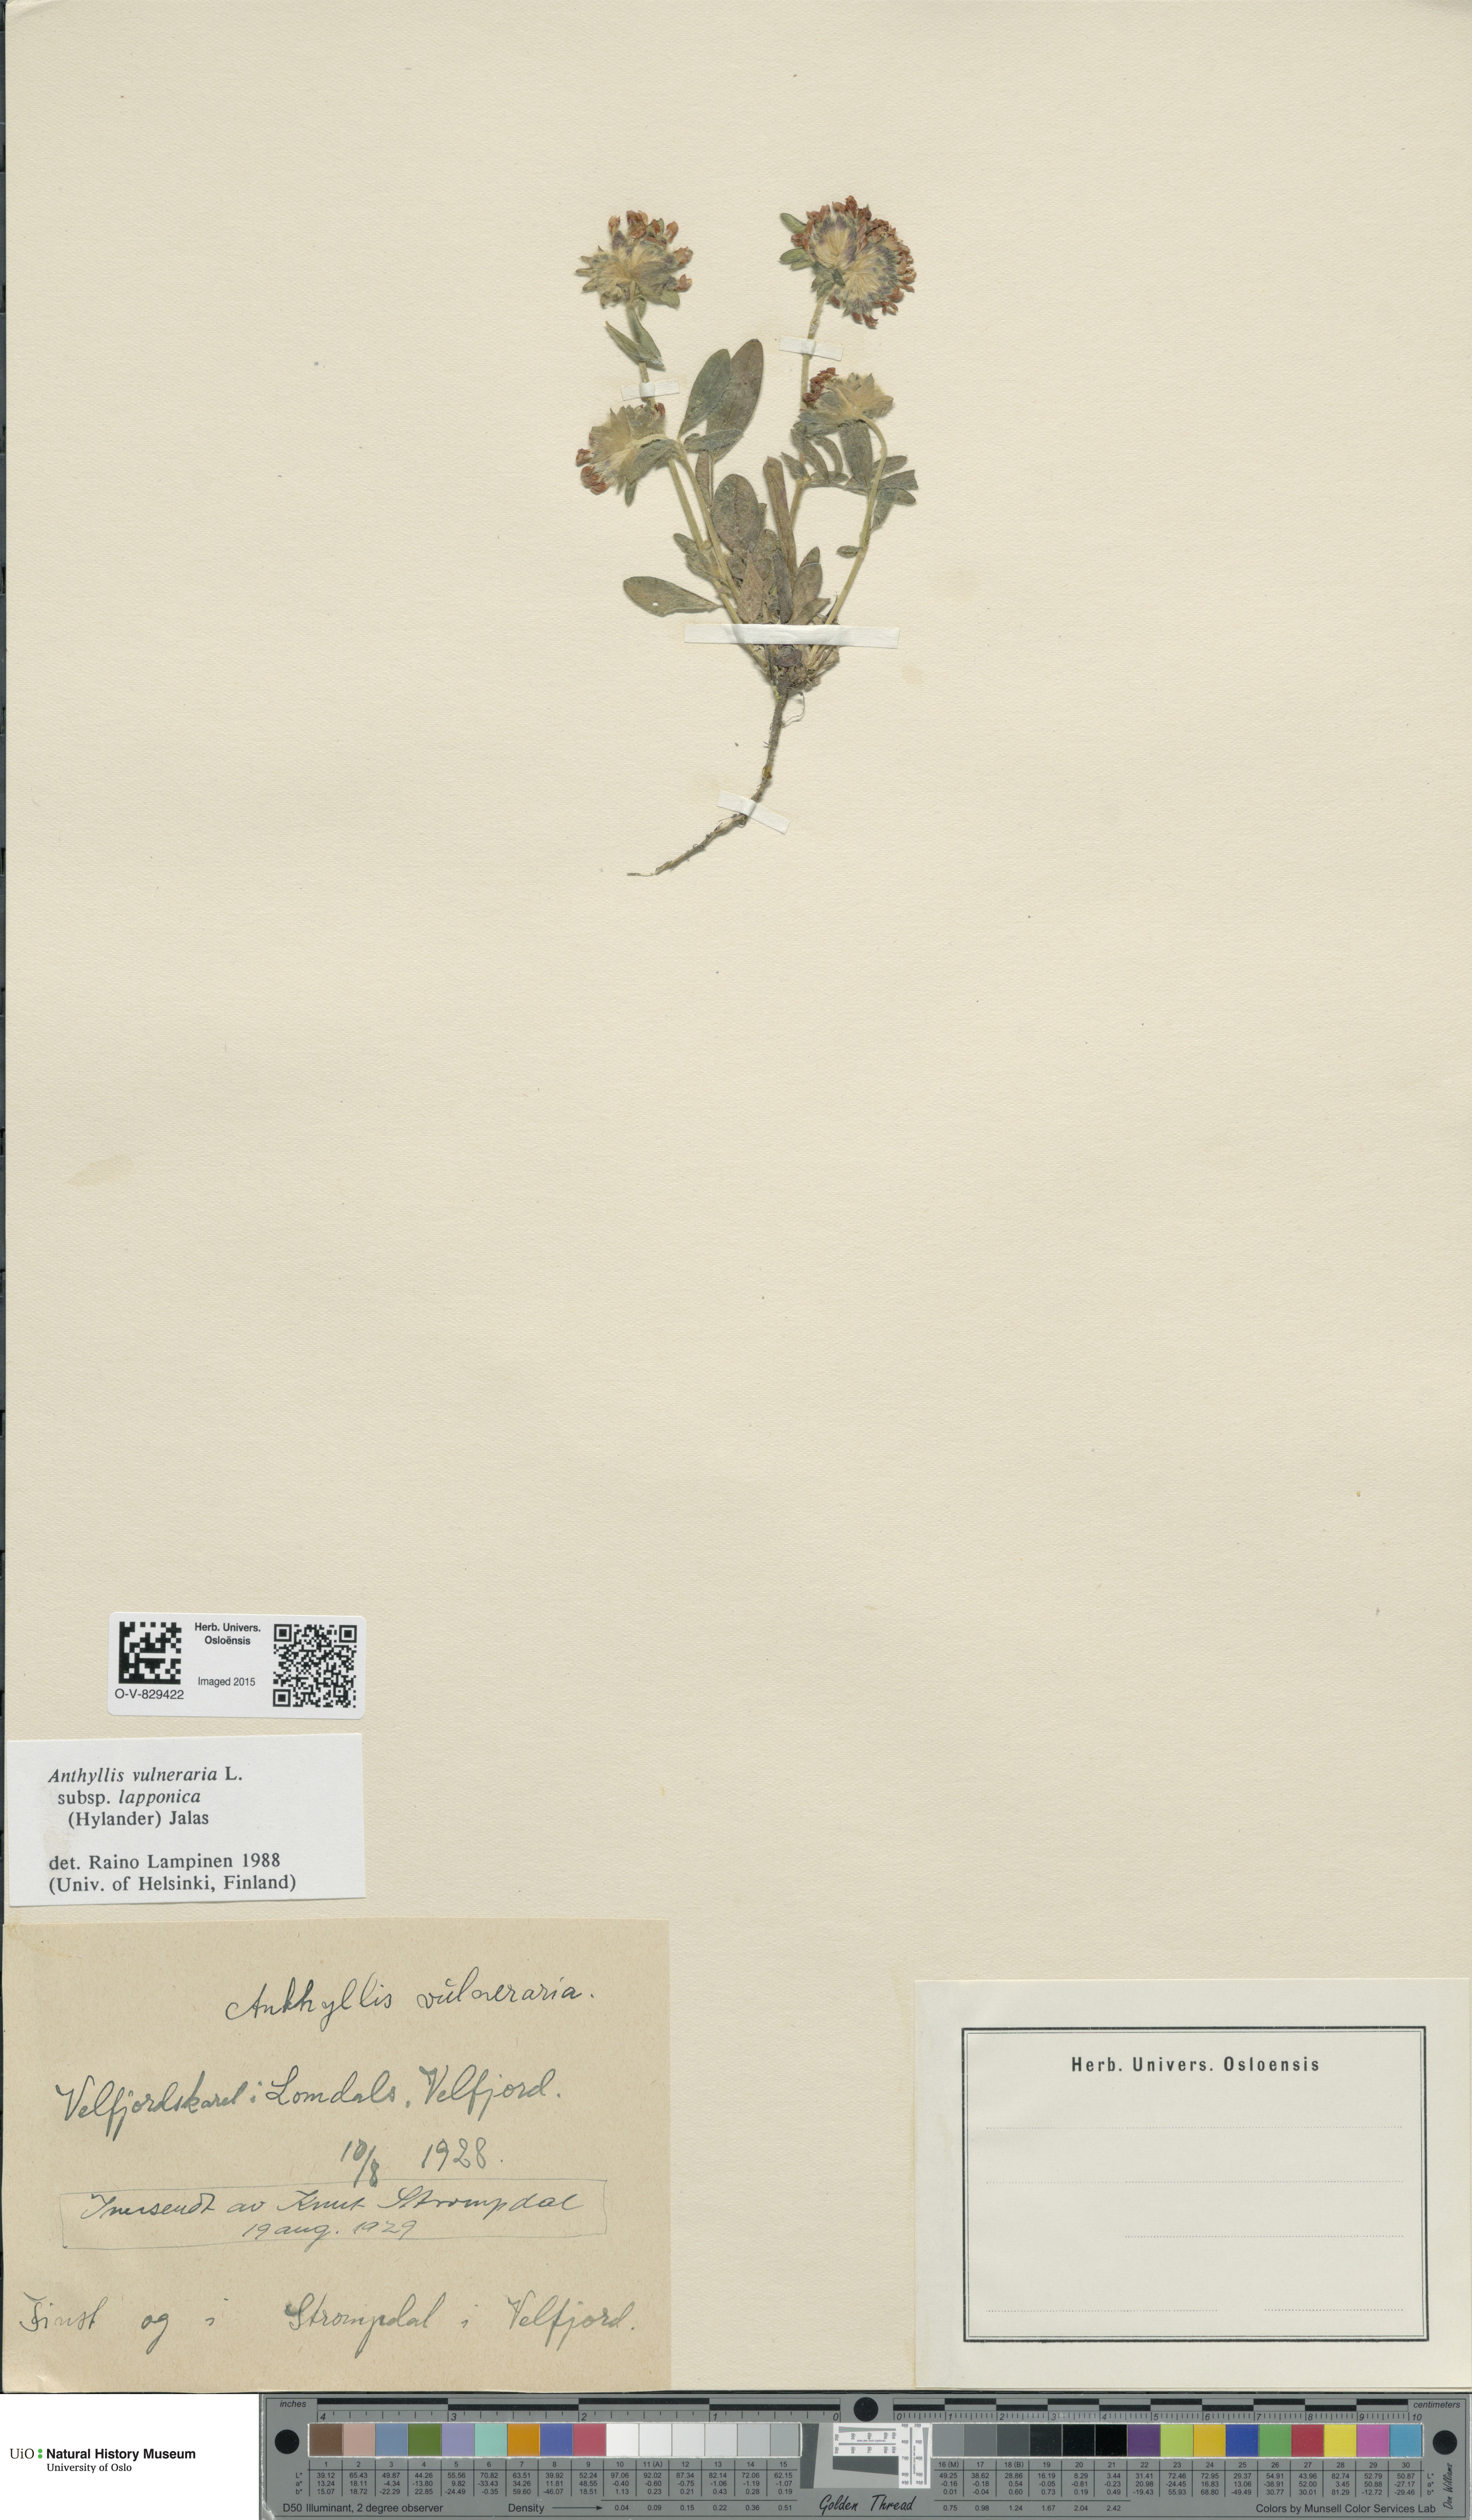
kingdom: Plantae
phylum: Tracheophyta
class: Magnoliopsida
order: Fabales
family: Fabaceae
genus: Anthyllis
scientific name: Anthyllis vulneraria
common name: Kidney vetch
